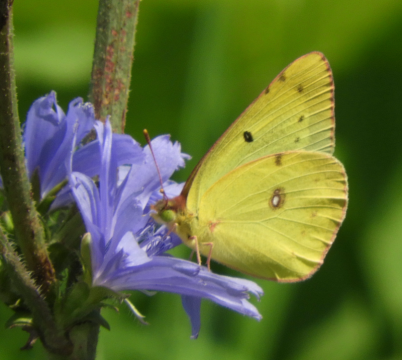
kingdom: Animalia
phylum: Arthropoda
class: Insecta
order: Lepidoptera
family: Pieridae
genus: Colias
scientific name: Colias philodice
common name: Clouded Sulphur
